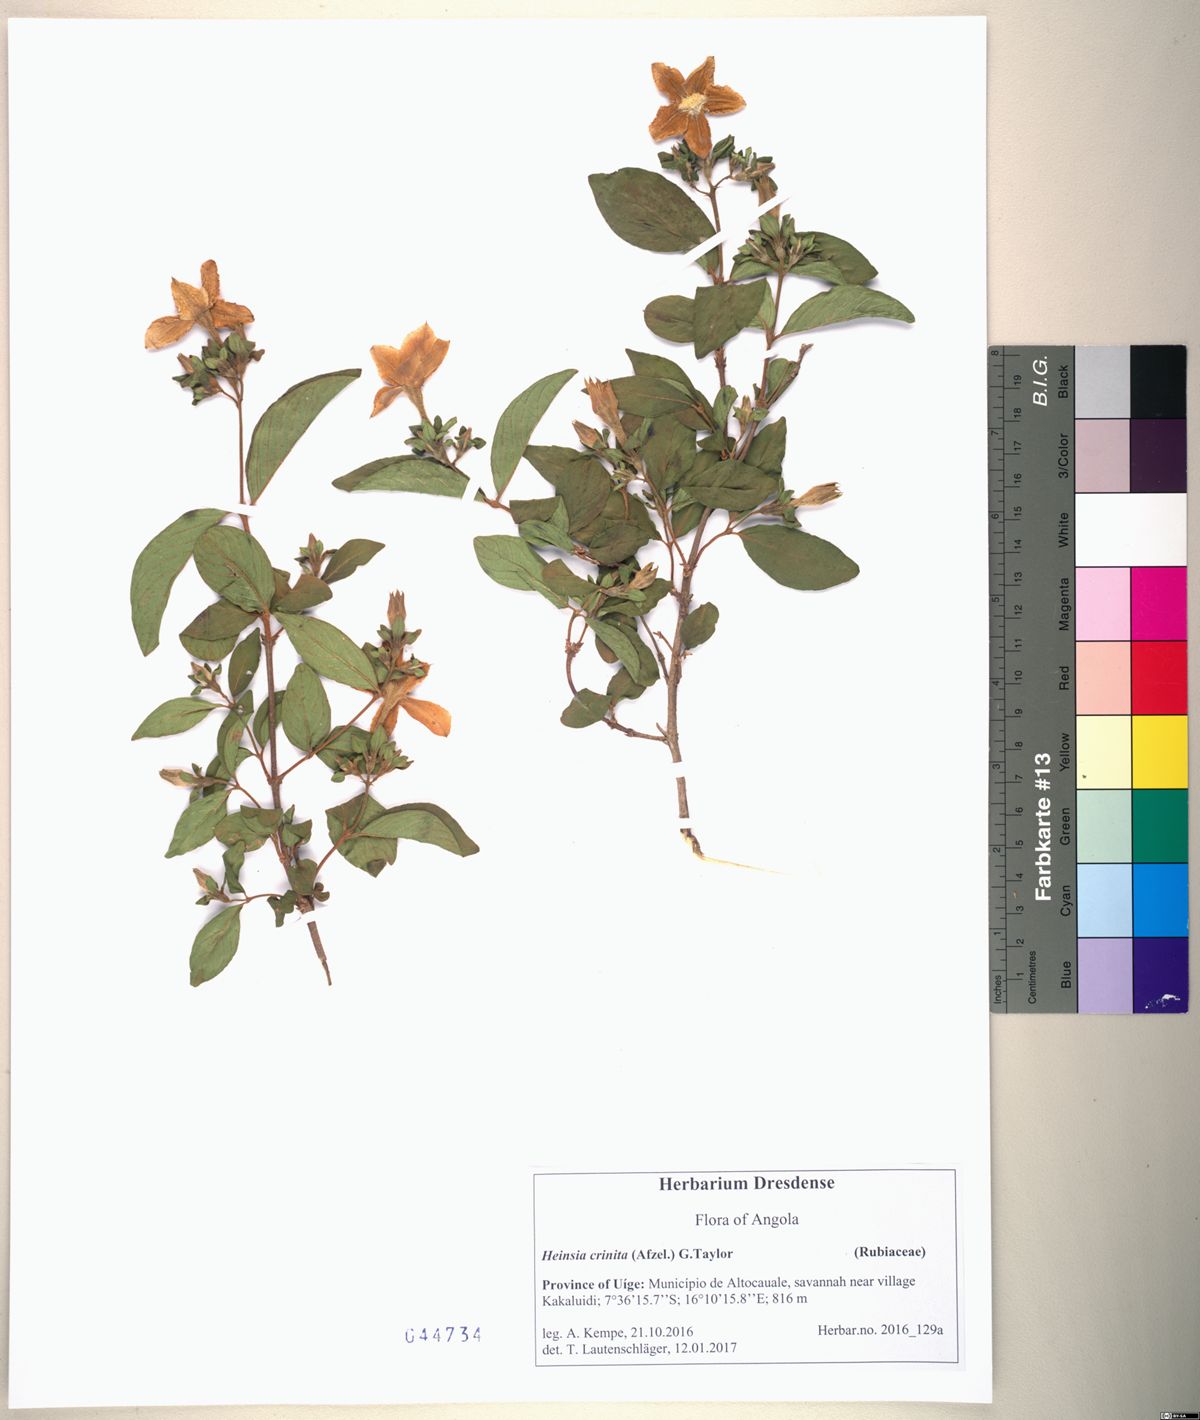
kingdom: Plantae
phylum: Tracheophyta
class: Magnoliopsida
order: Gentianales
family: Rubiaceae
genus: Heinsia
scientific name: Heinsia crinita
